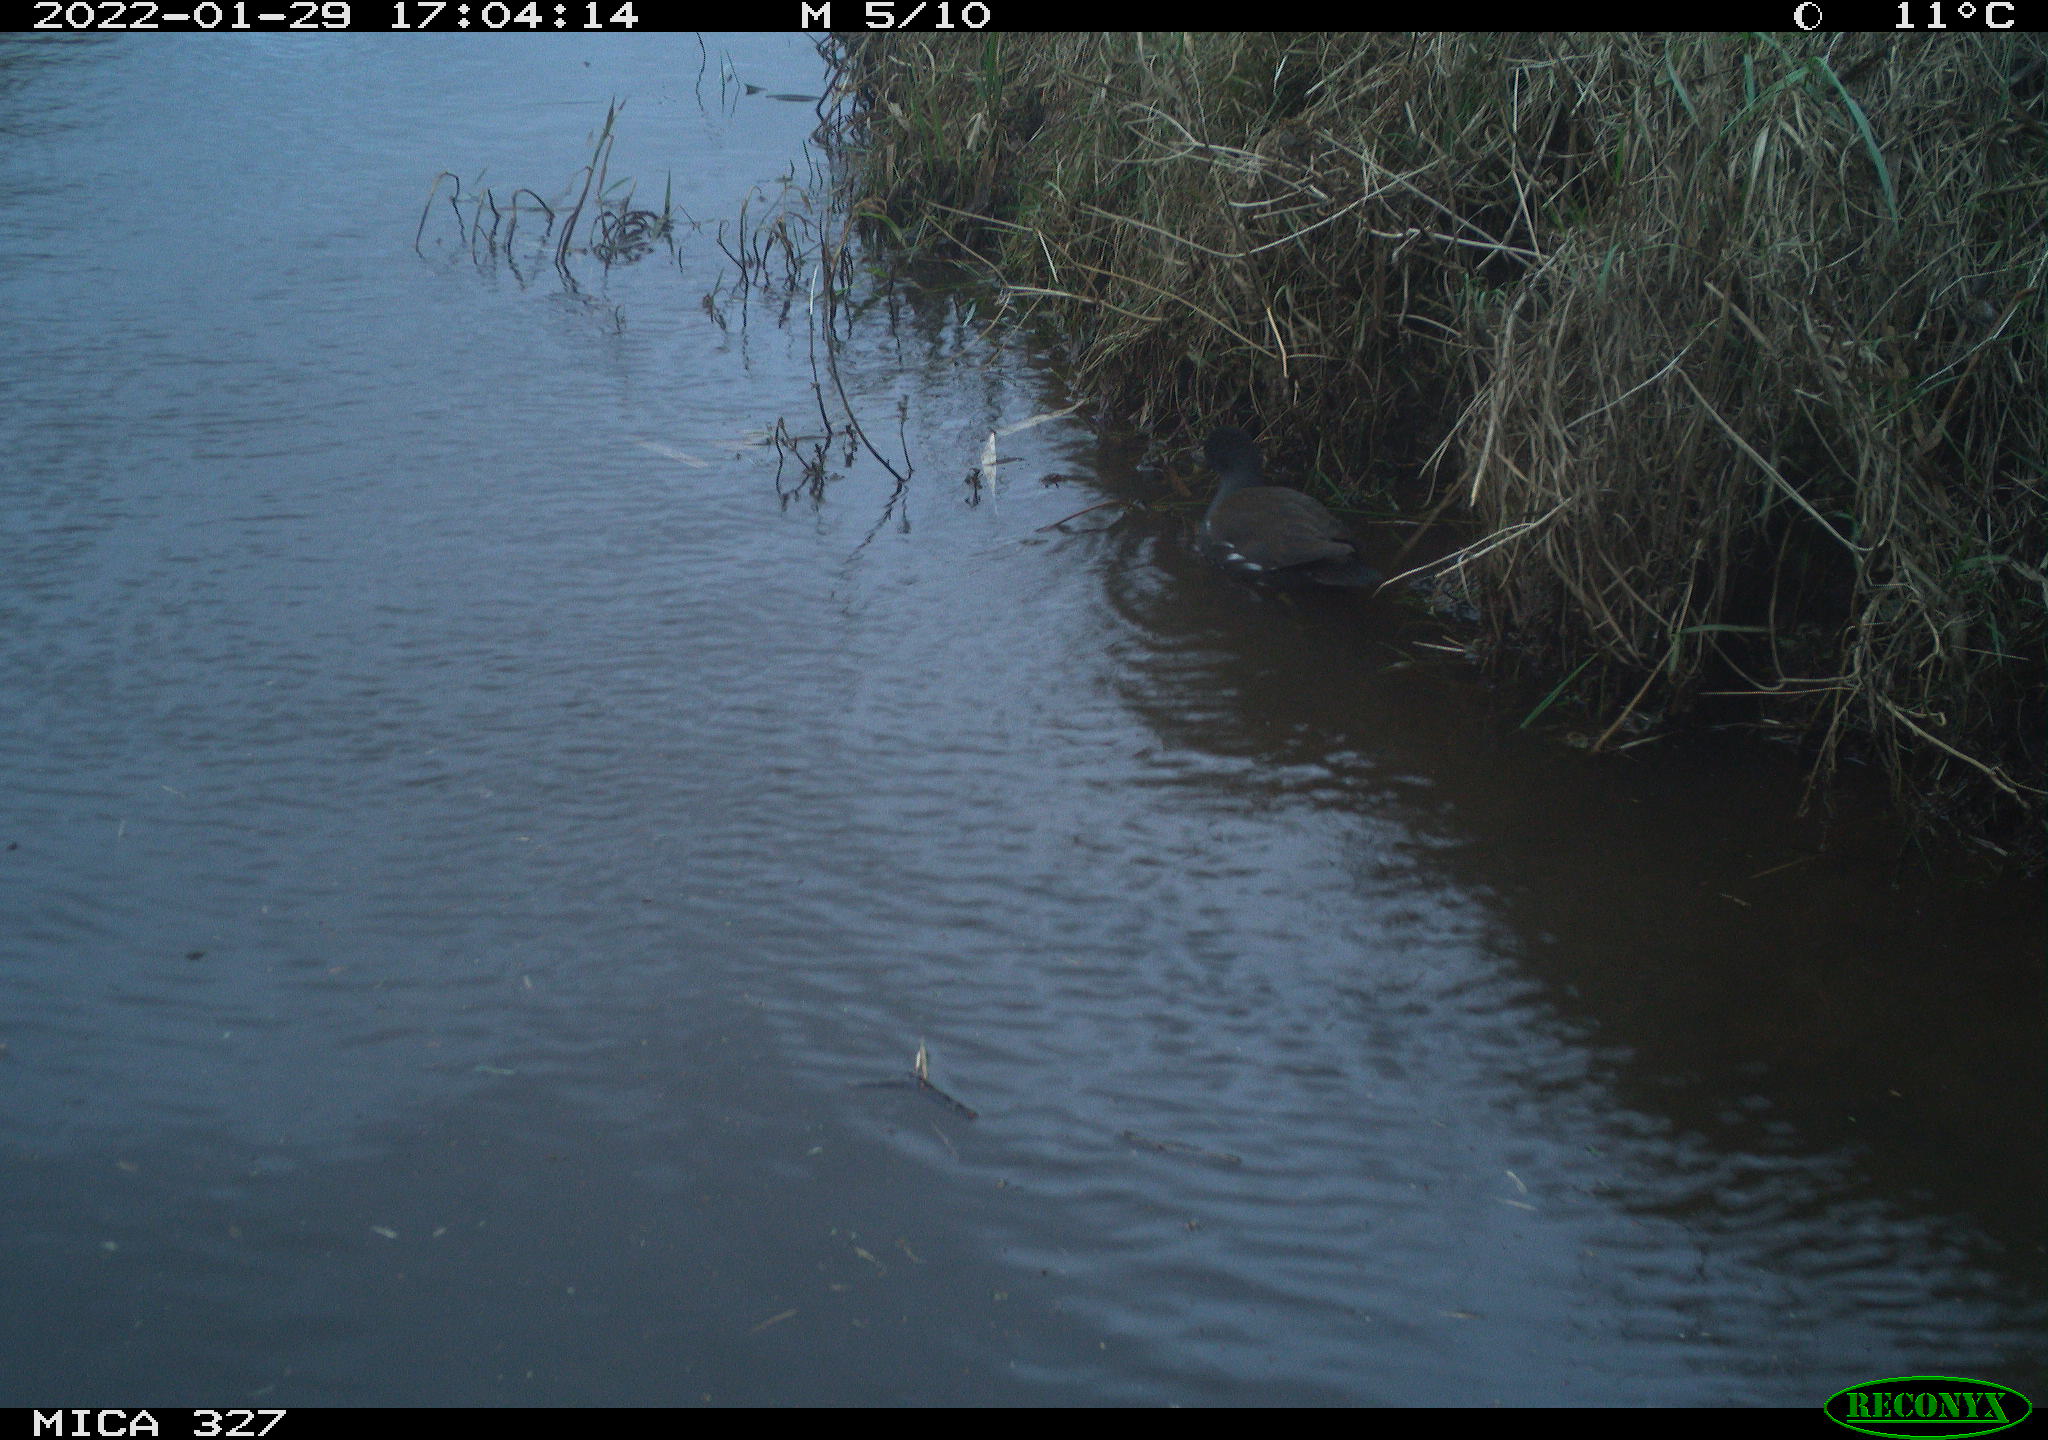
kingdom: Animalia
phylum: Chordata
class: Aves
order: Gruiformes
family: Rallidae
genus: Gallinula
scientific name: Gallinula chloropus
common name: Common moorhen
